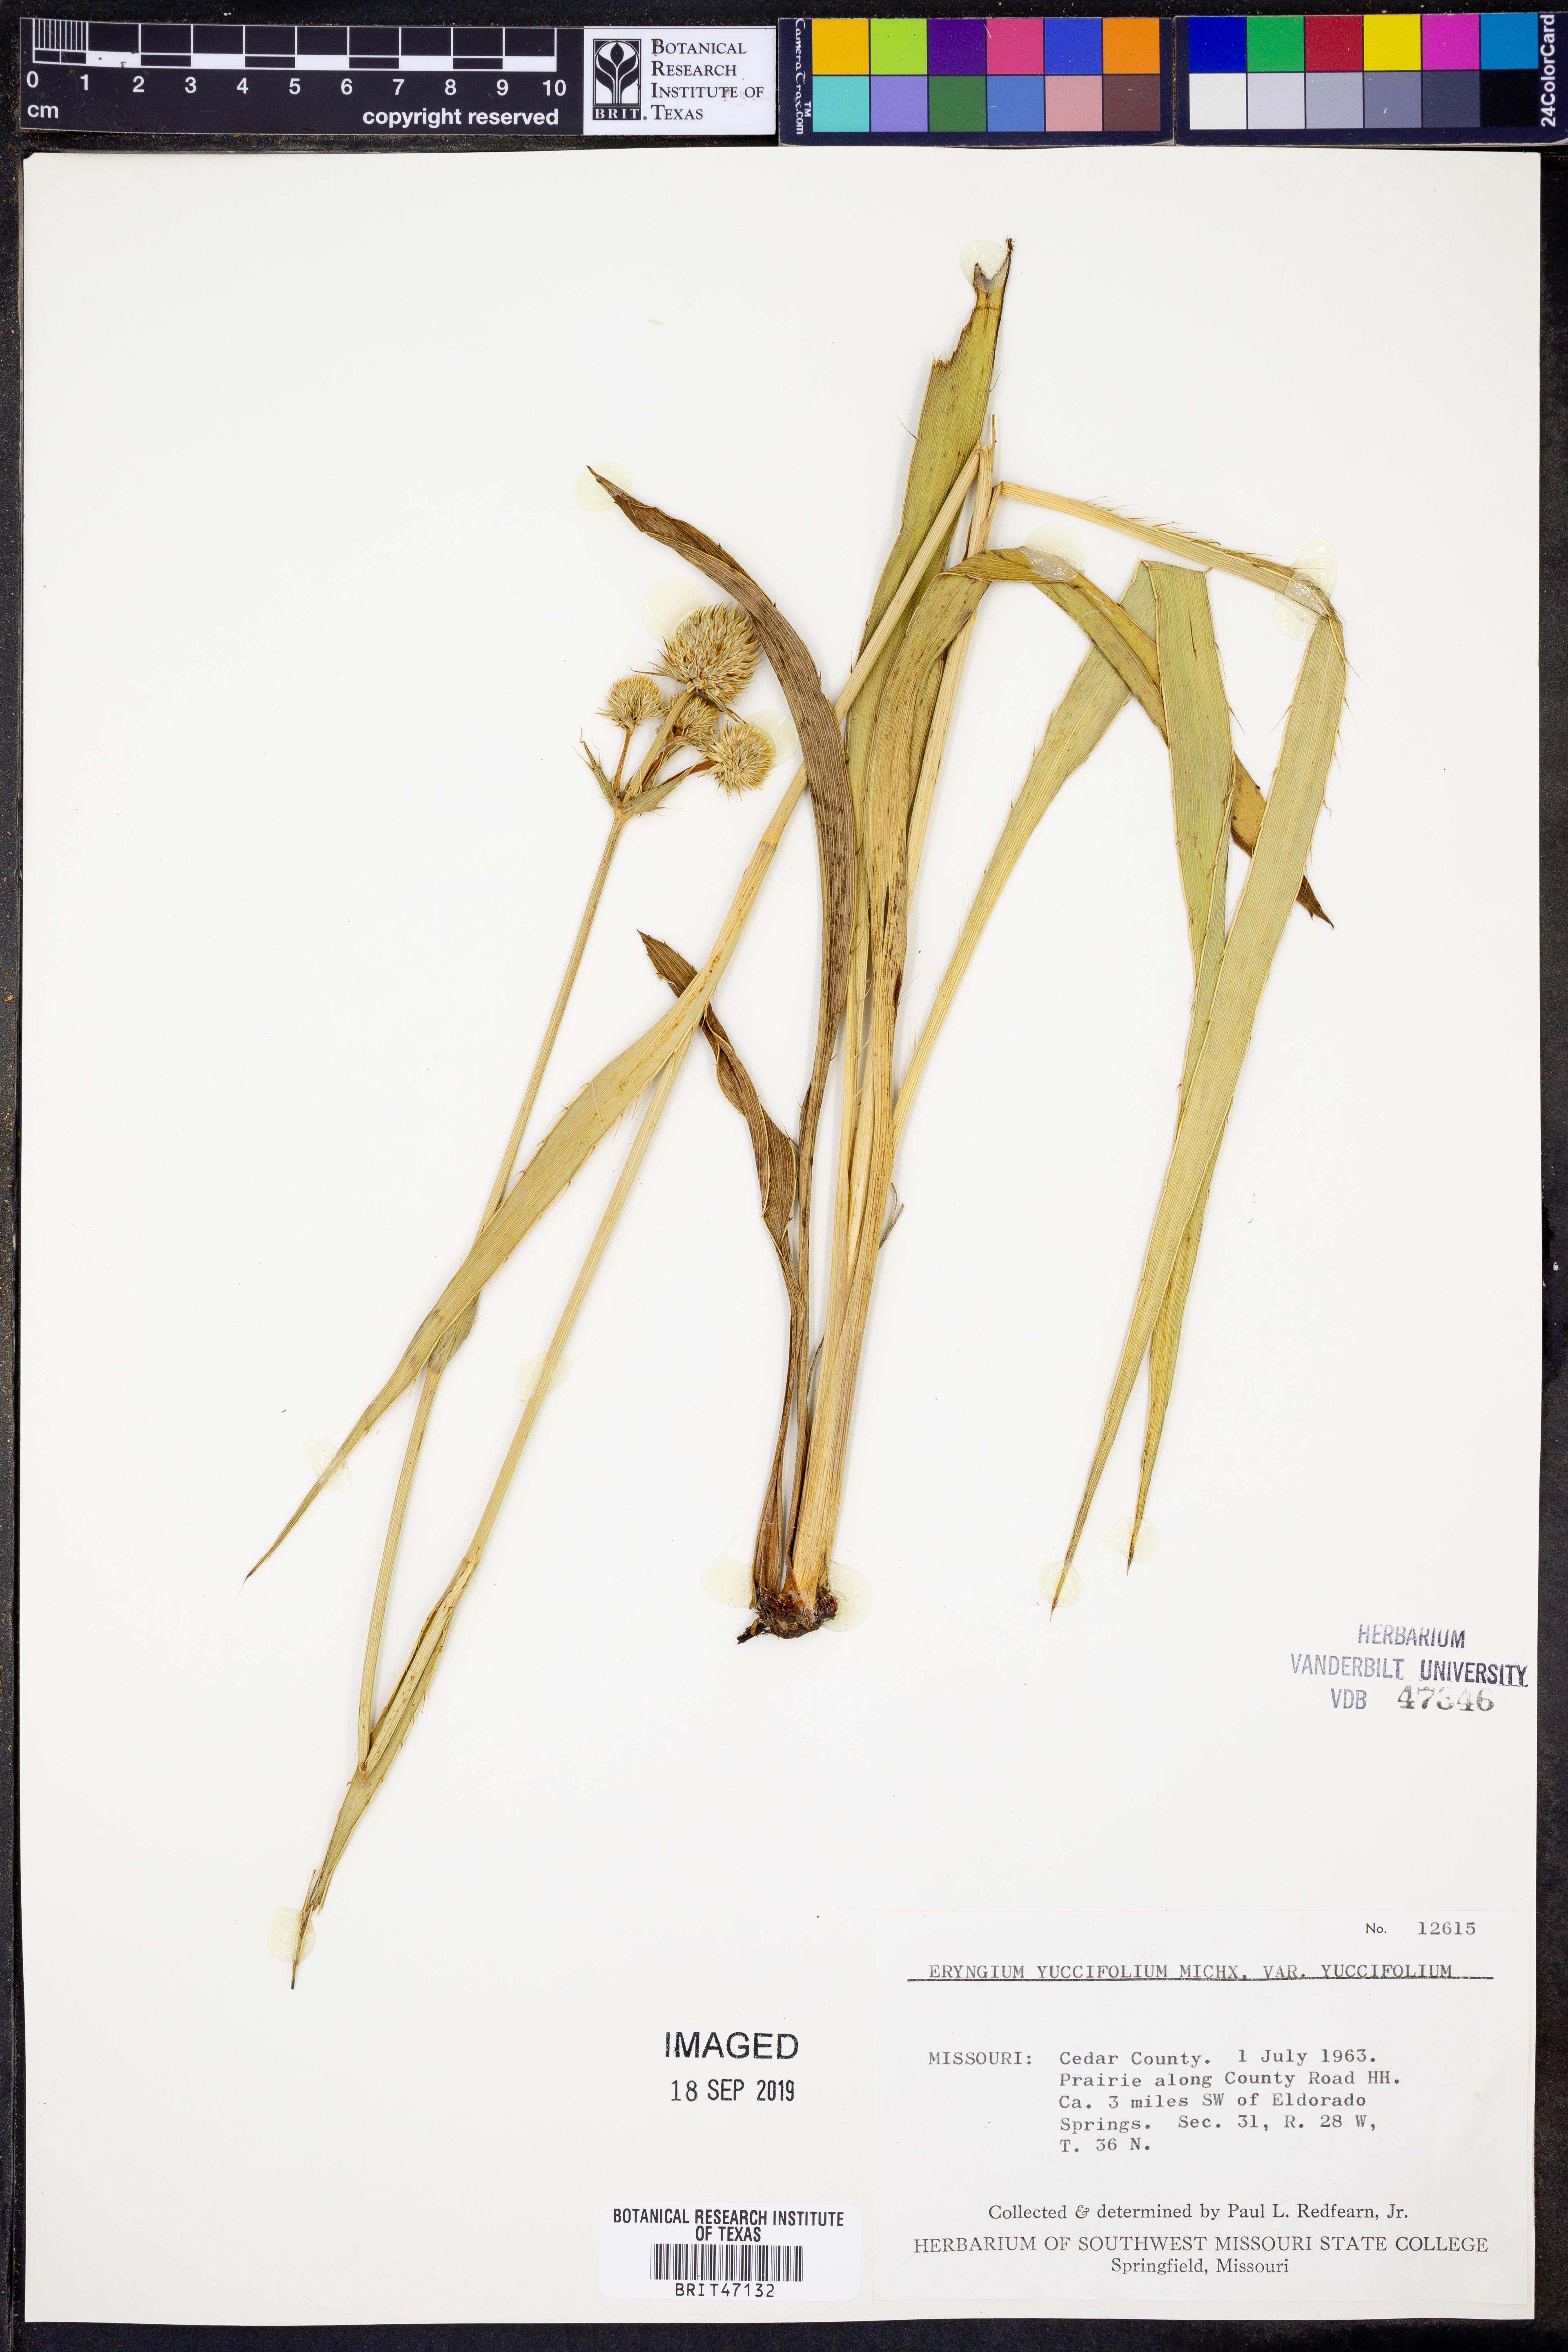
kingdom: Plantae
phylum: Tracheophyta
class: Magnoliopsida
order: Apiales
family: Apiaceae
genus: Eryngium
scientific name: Eryngium yuccifolium
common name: Button eryngo
